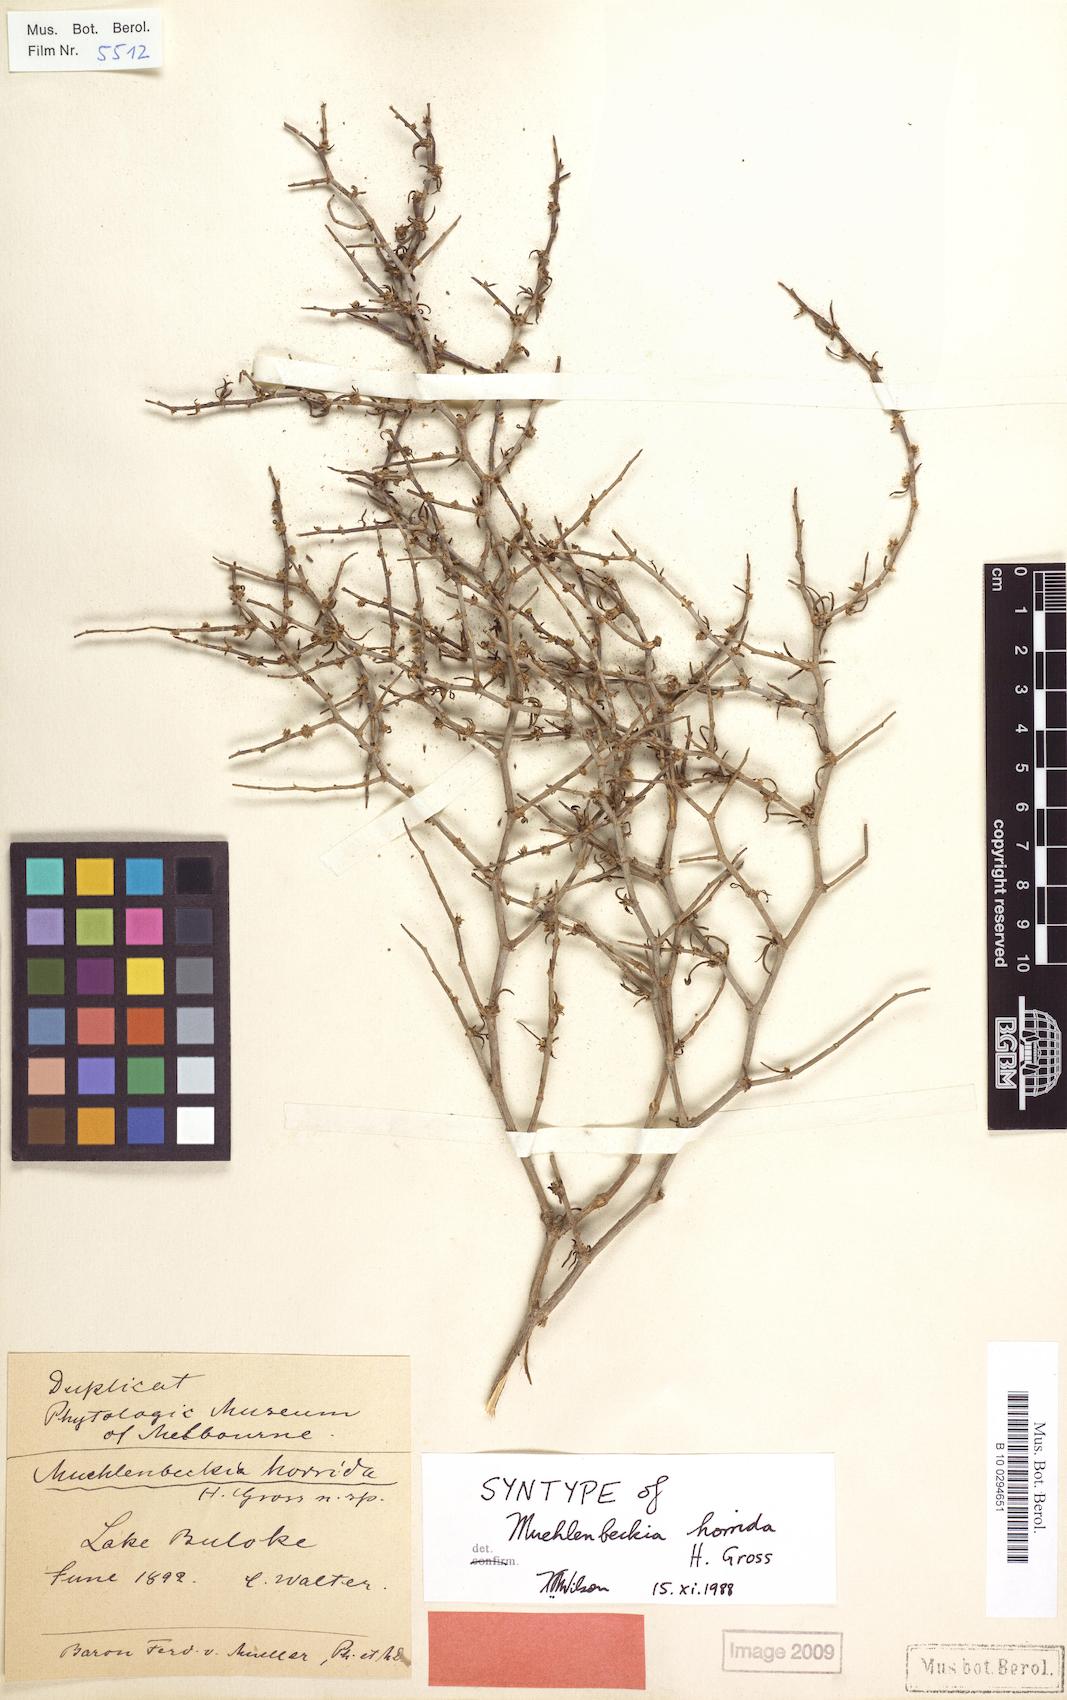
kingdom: Plantae
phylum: Tracheophyta
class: Magnoliopsida
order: Caryophyllales
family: Polygonaceae
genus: Duma
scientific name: Duma horrida
